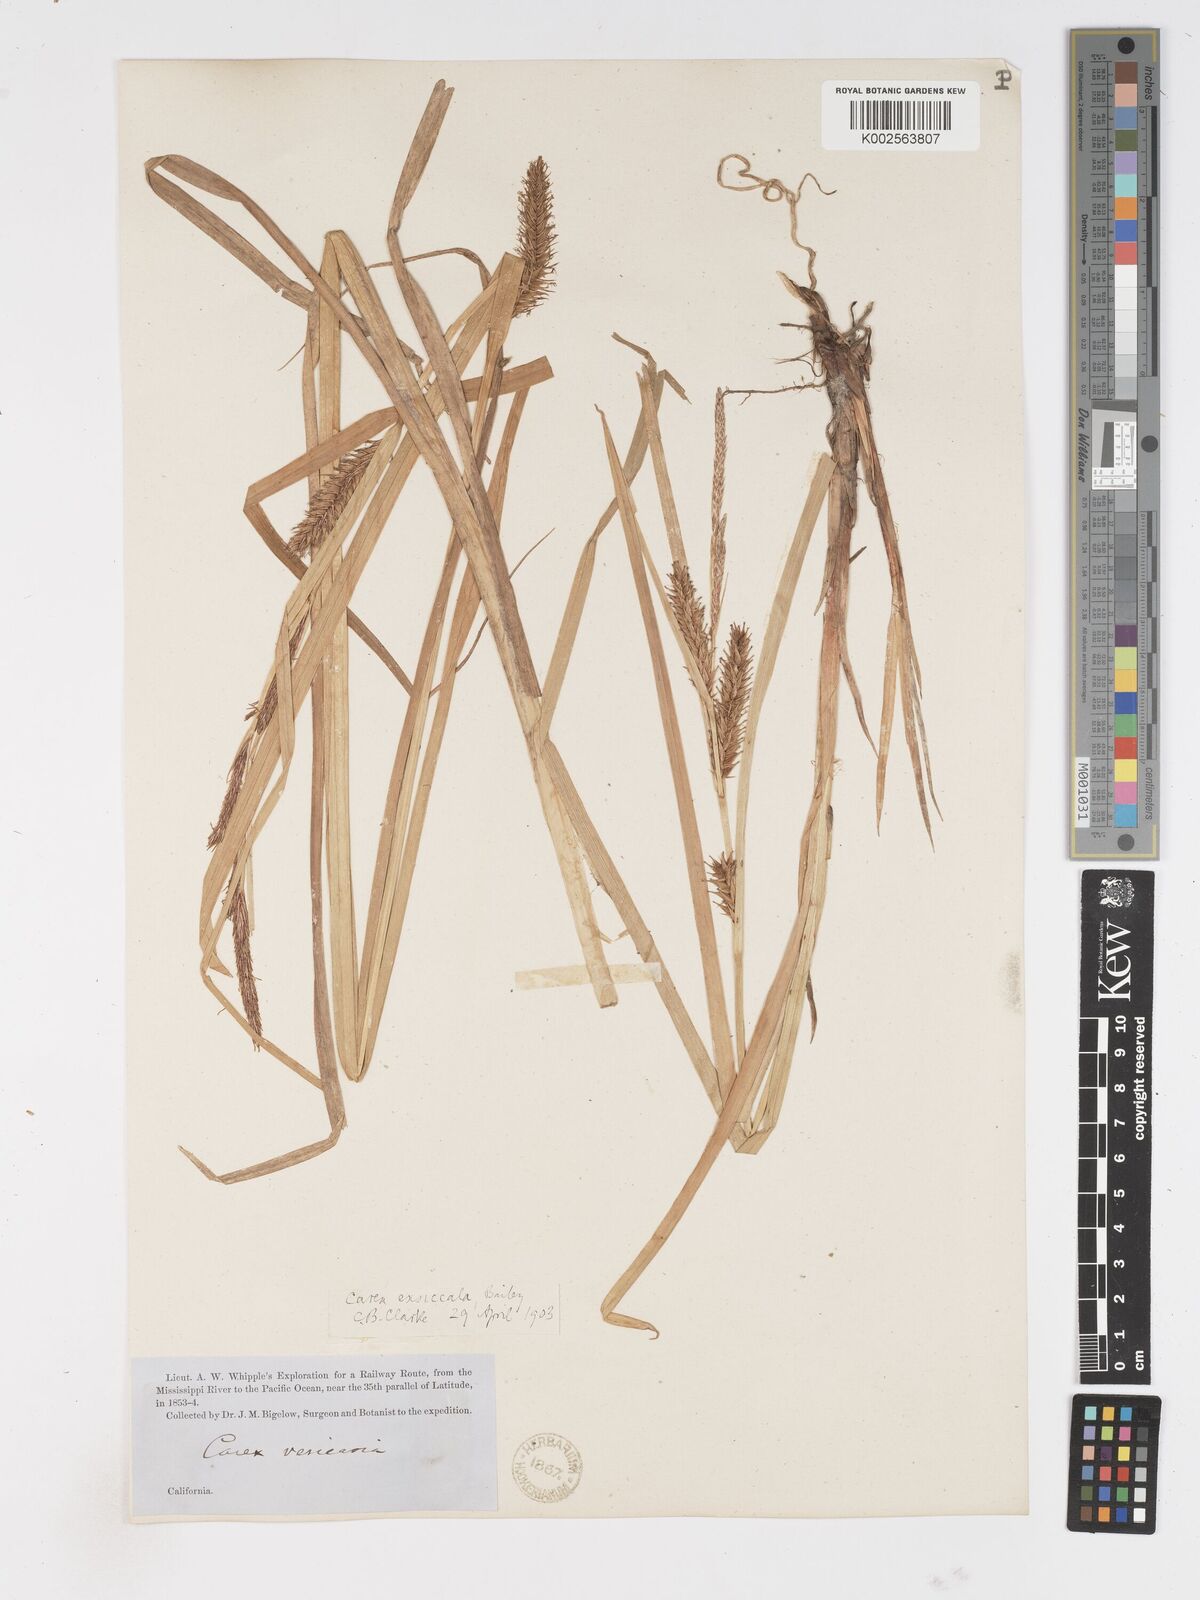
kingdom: Plantae
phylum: Tracheophyta
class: Liliopsida
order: Poales
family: Cyperaceae
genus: Carex
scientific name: Carex exsiccata
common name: Beaked sedge
